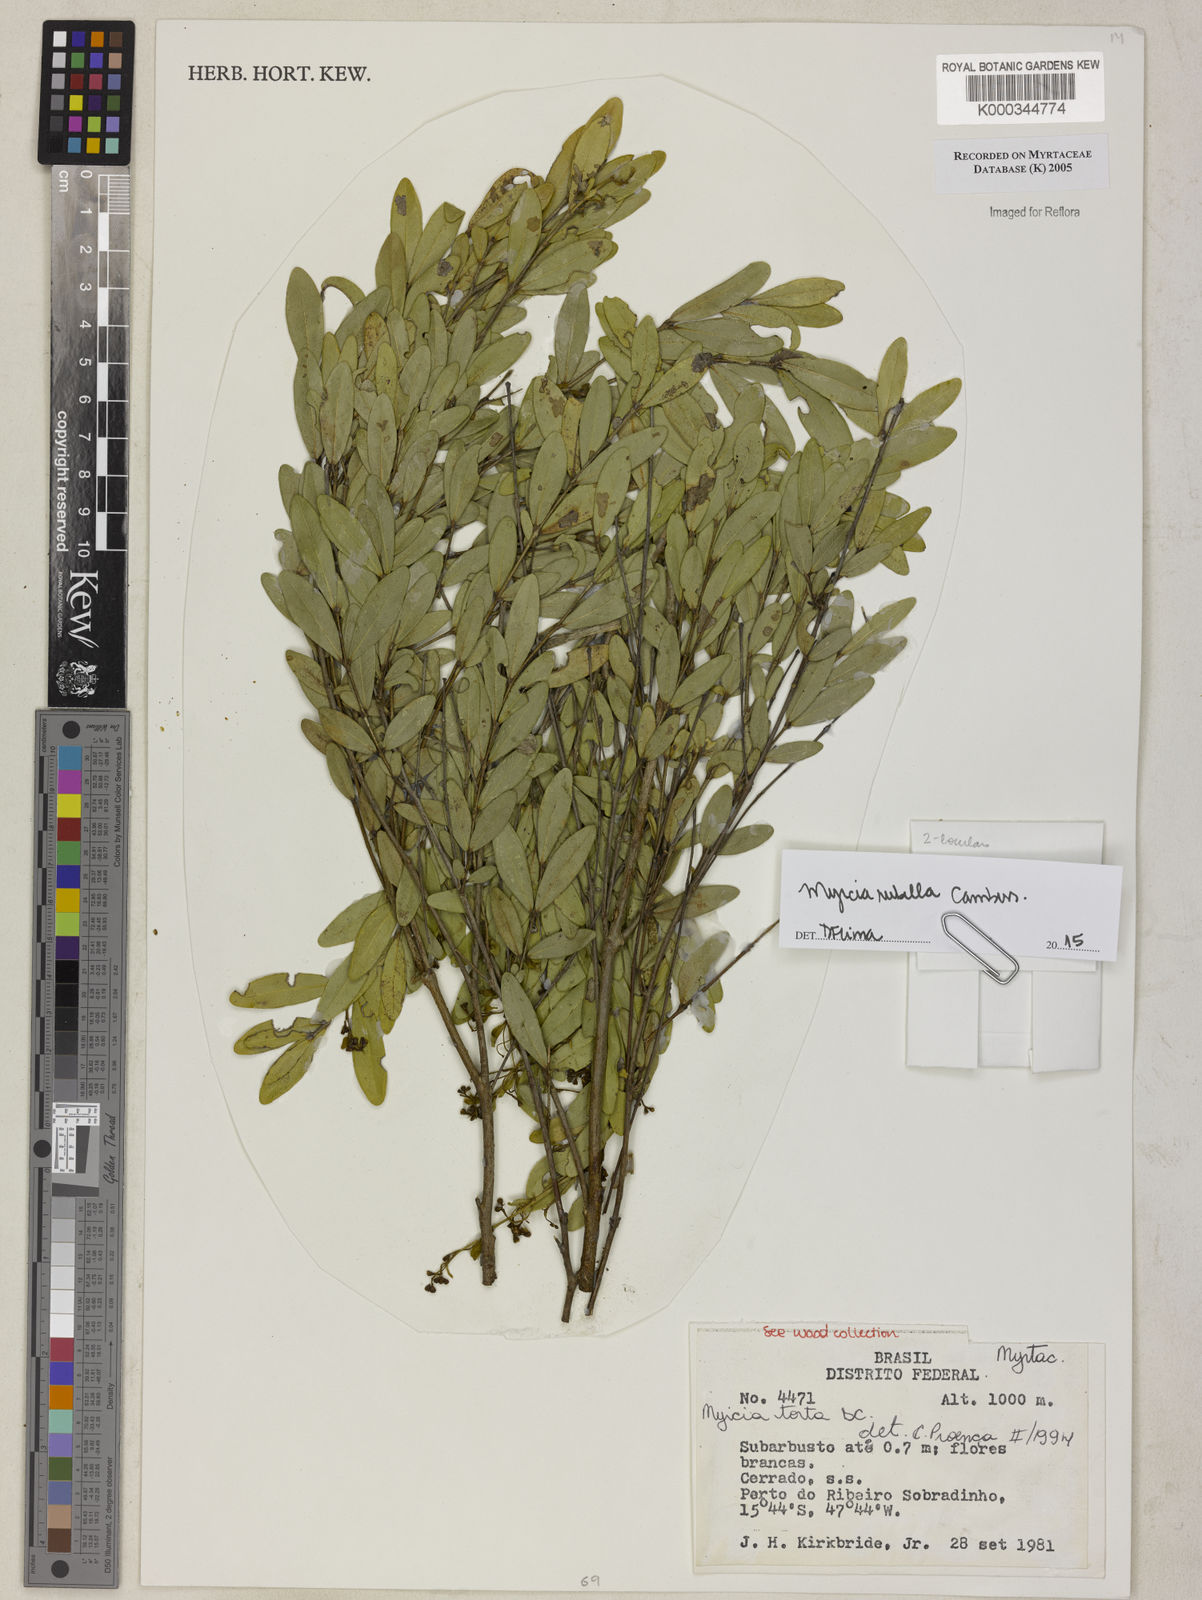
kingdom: Plantae
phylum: Tracheophyta
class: Magnoliopsida
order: Myrtales
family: Myrtaceae
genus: Myrcia
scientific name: Myrcia guianensis
